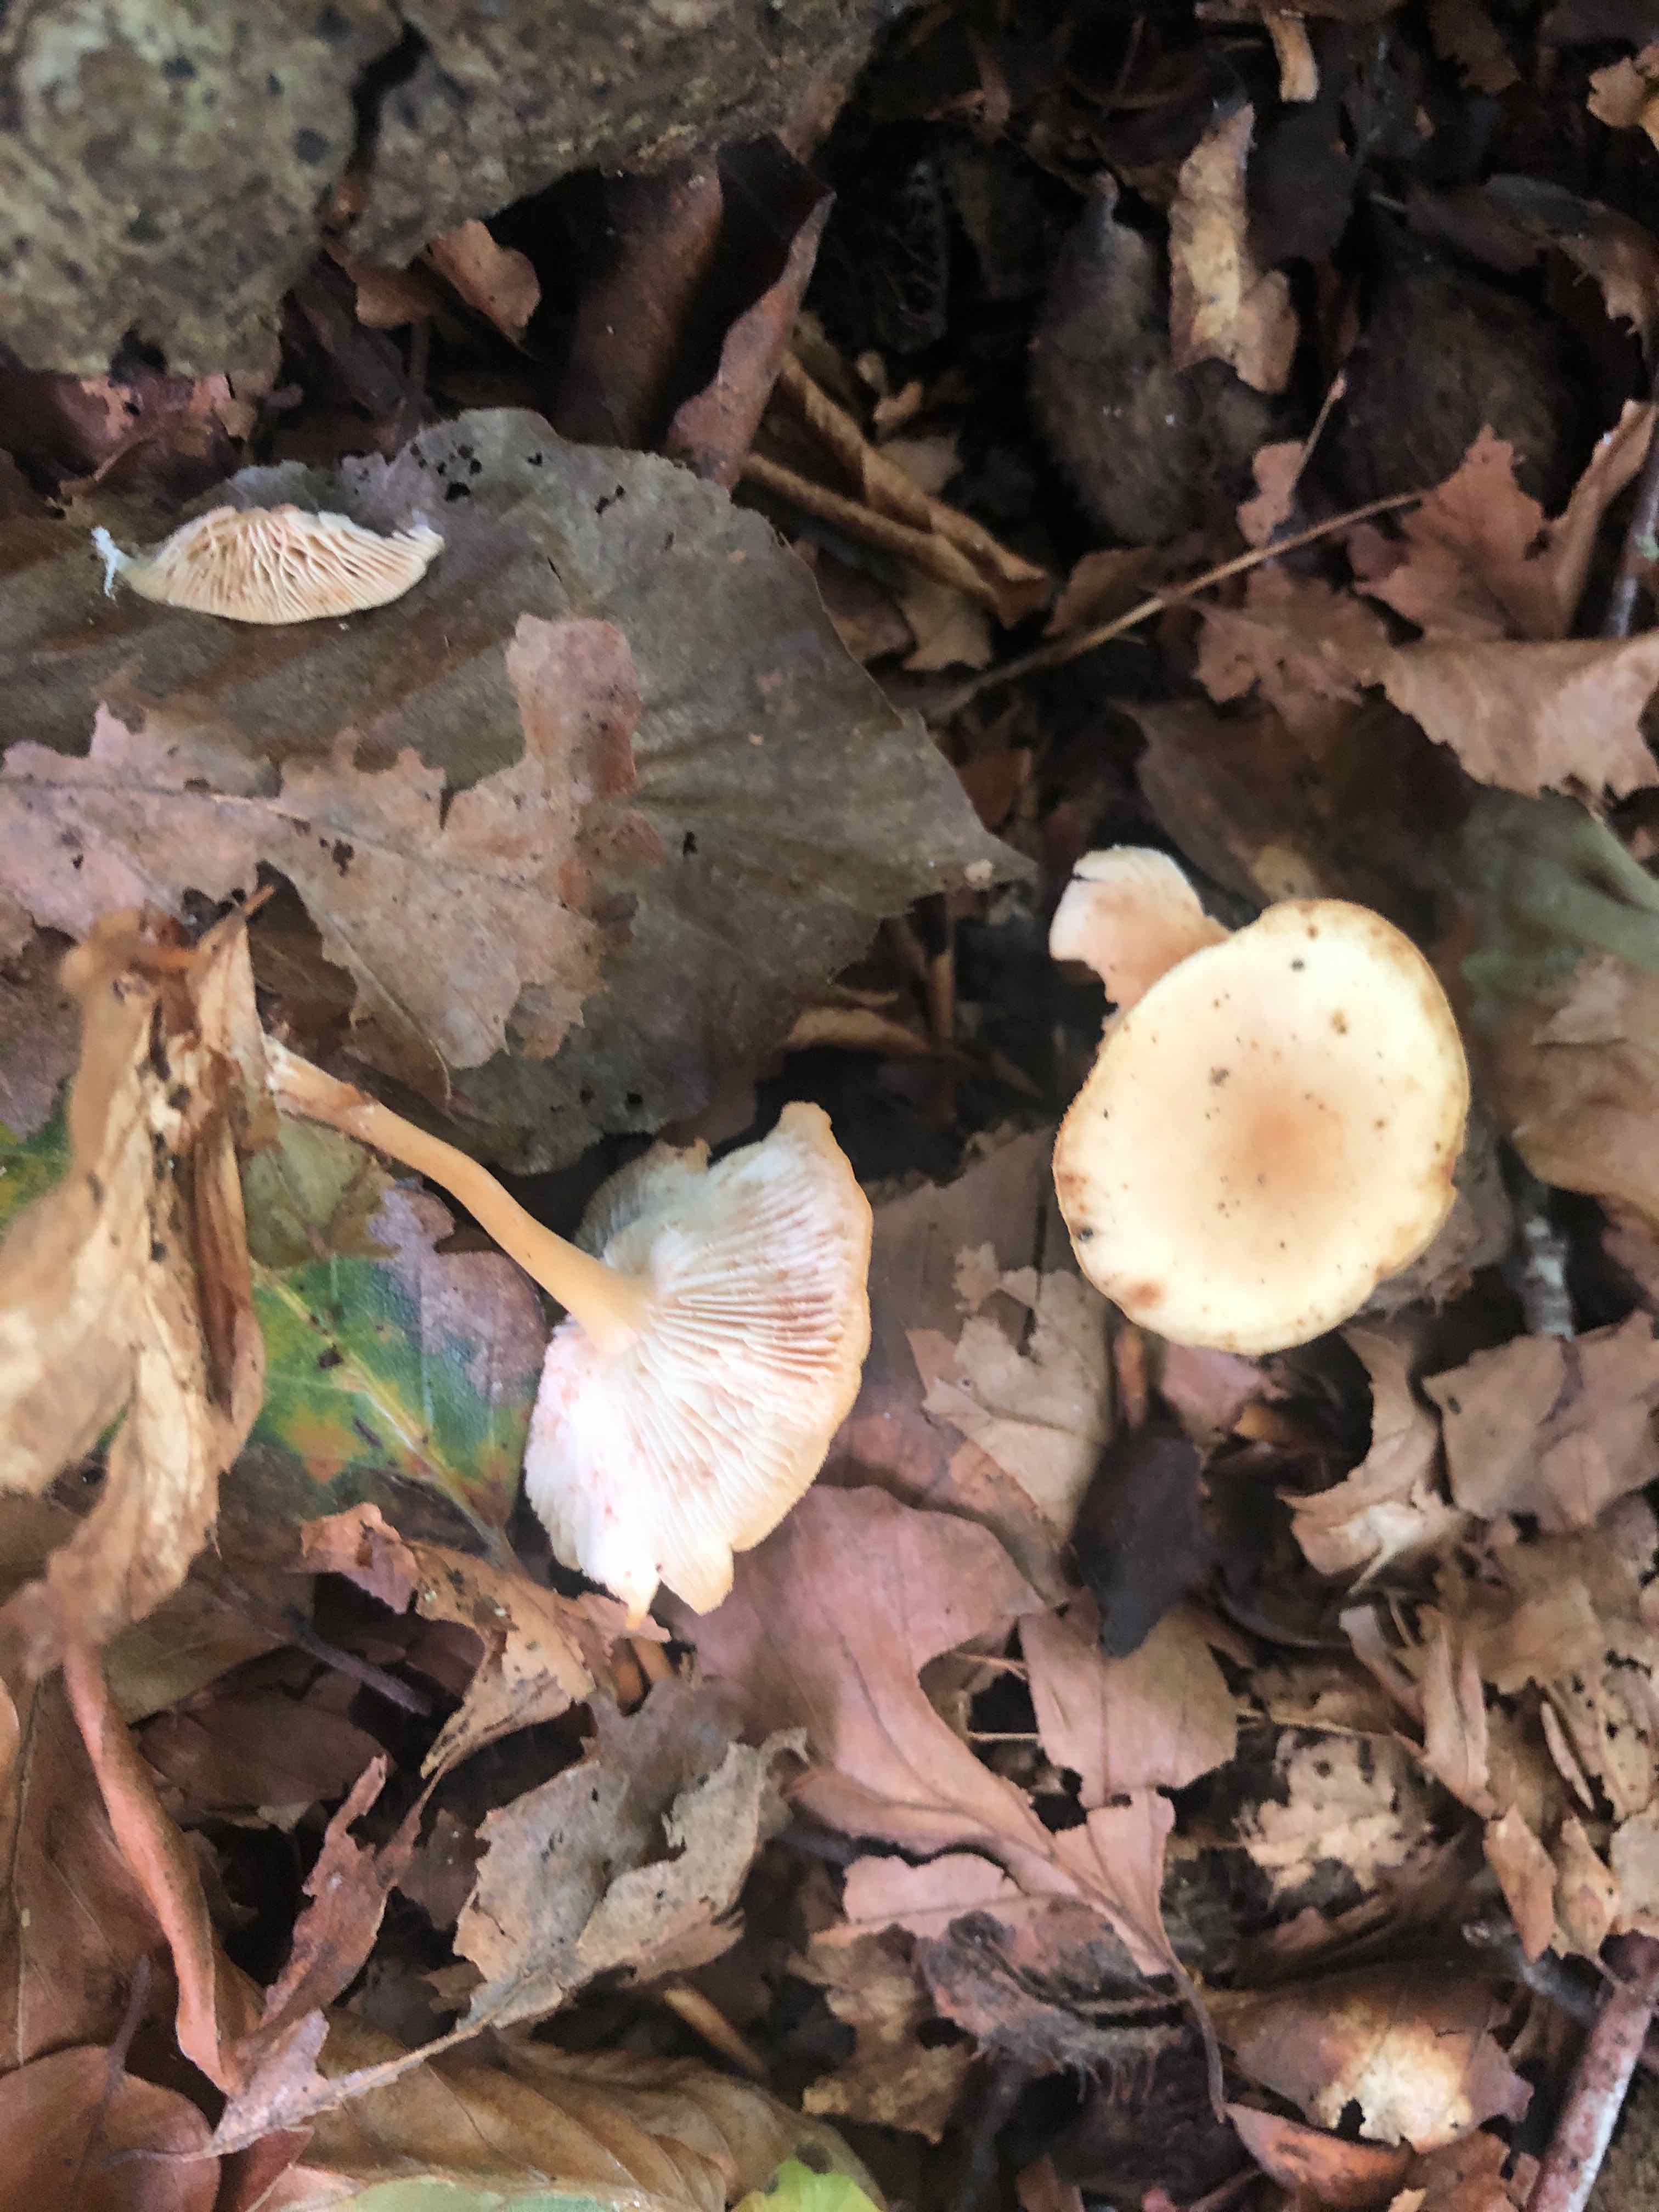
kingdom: Fungi
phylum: Basidiomycota
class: Agaricomycetes
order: Agaricales
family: Omphalotaceae
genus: Gymnopus
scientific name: Gymnopus dryophilus
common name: løv-fladhat
